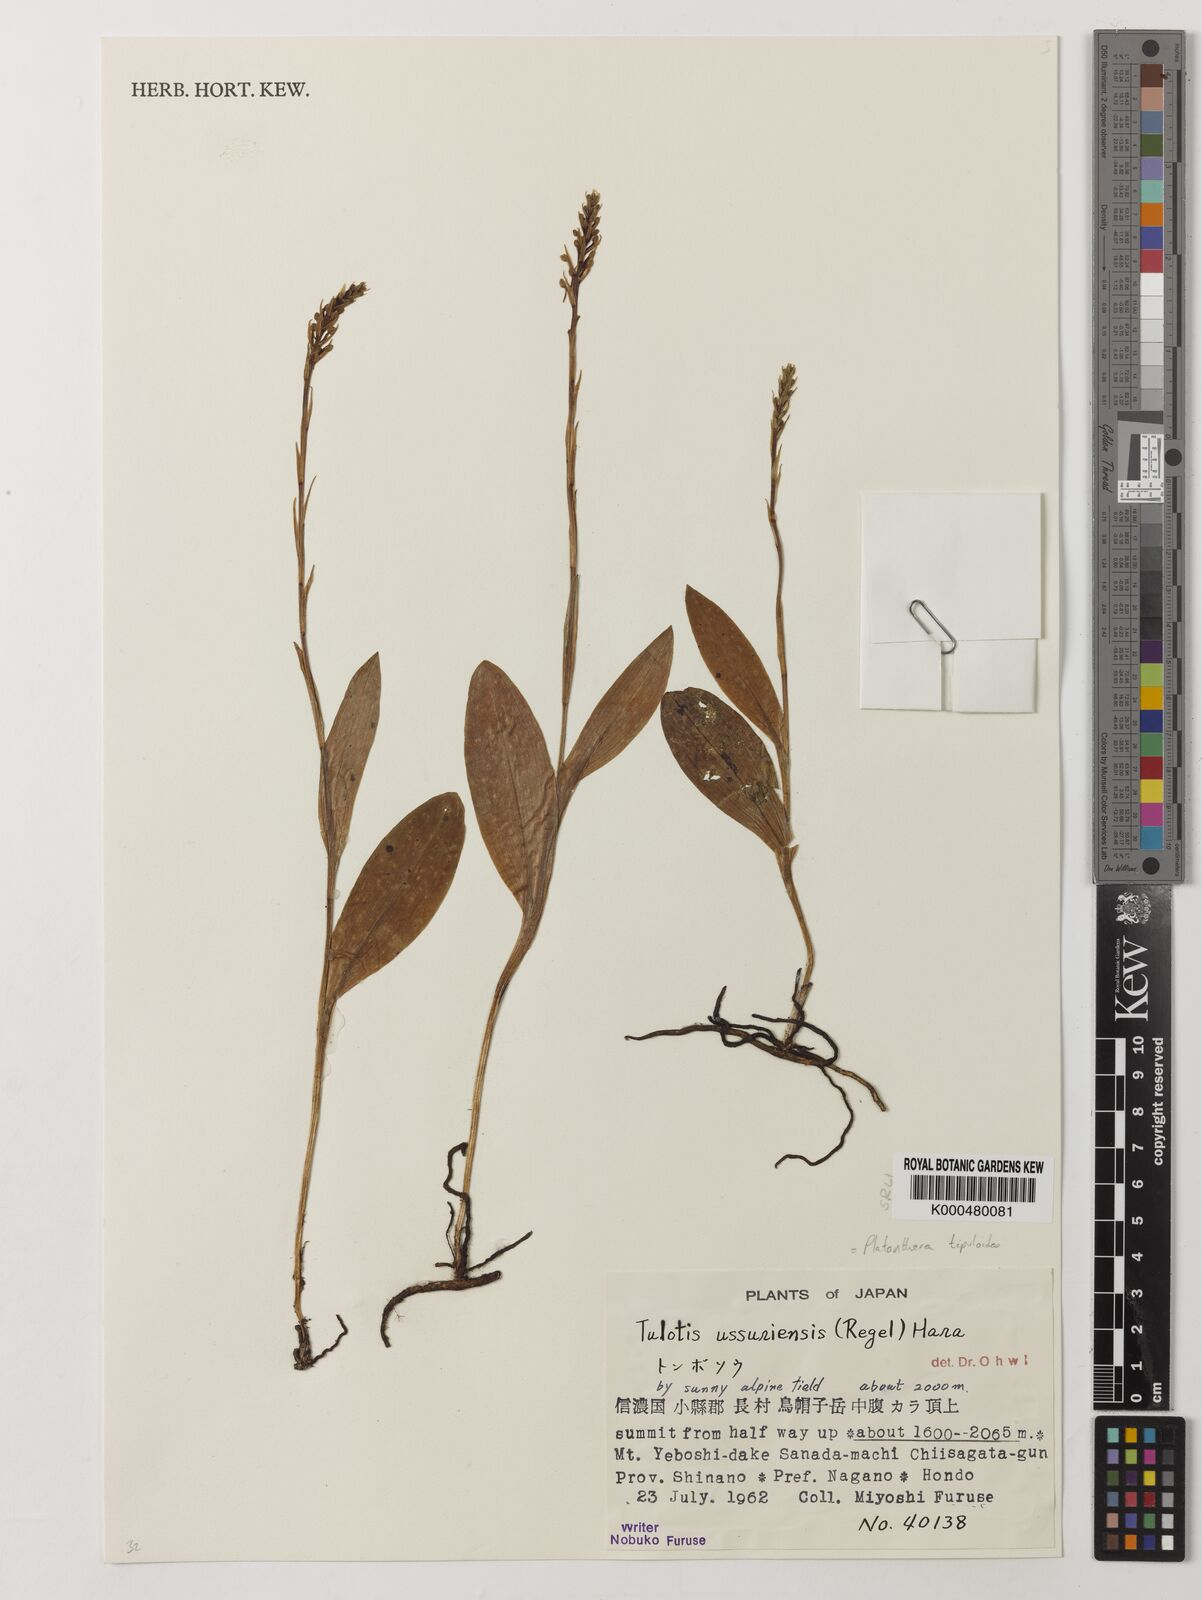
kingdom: Plantae
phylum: Tracheophyta
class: Liliopsida
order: Asparagales
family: Orchidaceae
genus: Platanthera
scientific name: Platanthera tipuloides
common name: Aleutian bog orchid
